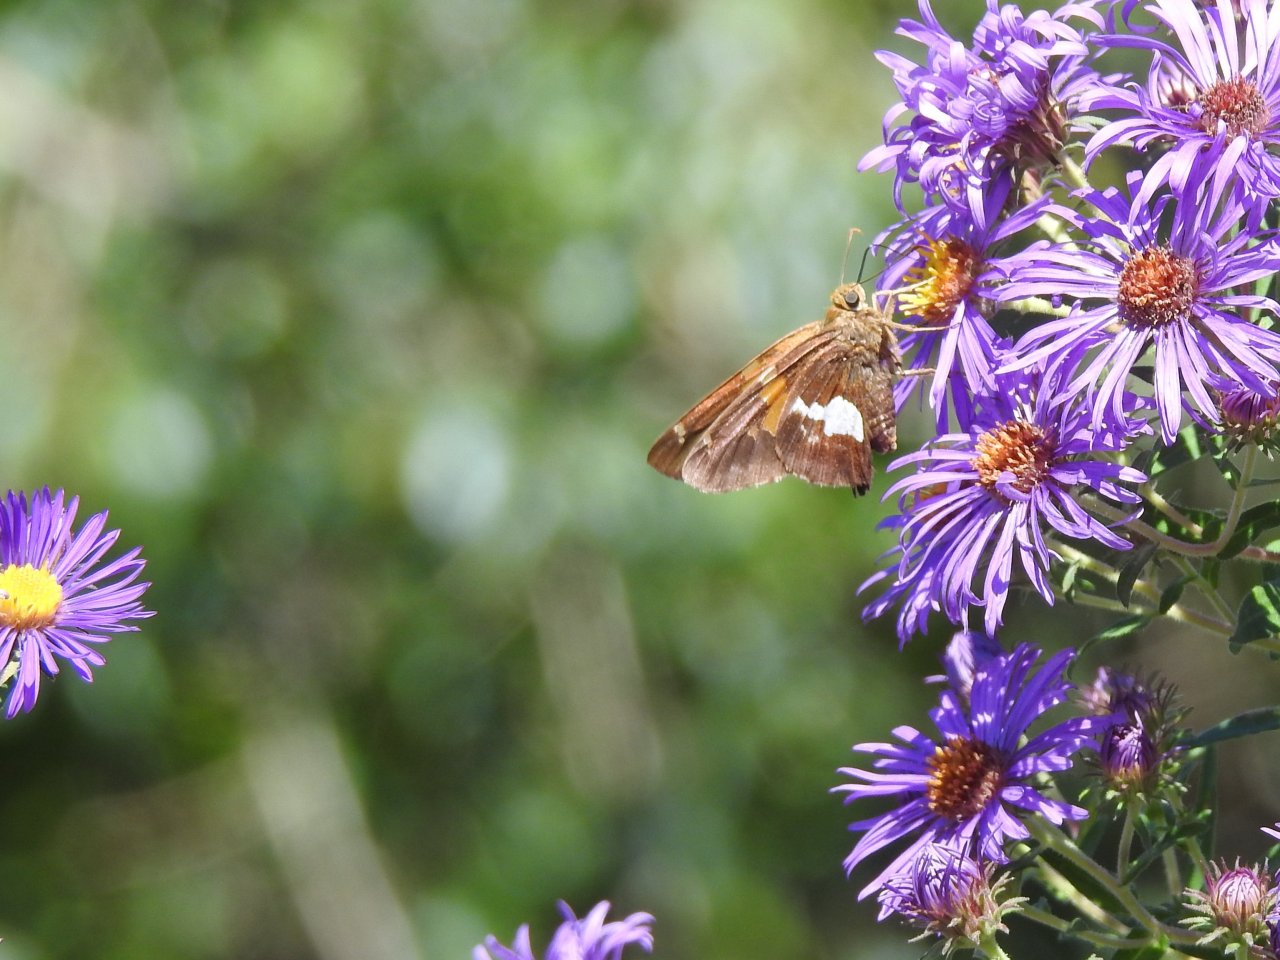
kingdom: Animalia
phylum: Arthropoda
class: Insecta
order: Lepidoptera
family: Hesperiidae
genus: Epargyreus
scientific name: Epargyreus clarus
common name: Silver-spotted Skipper
